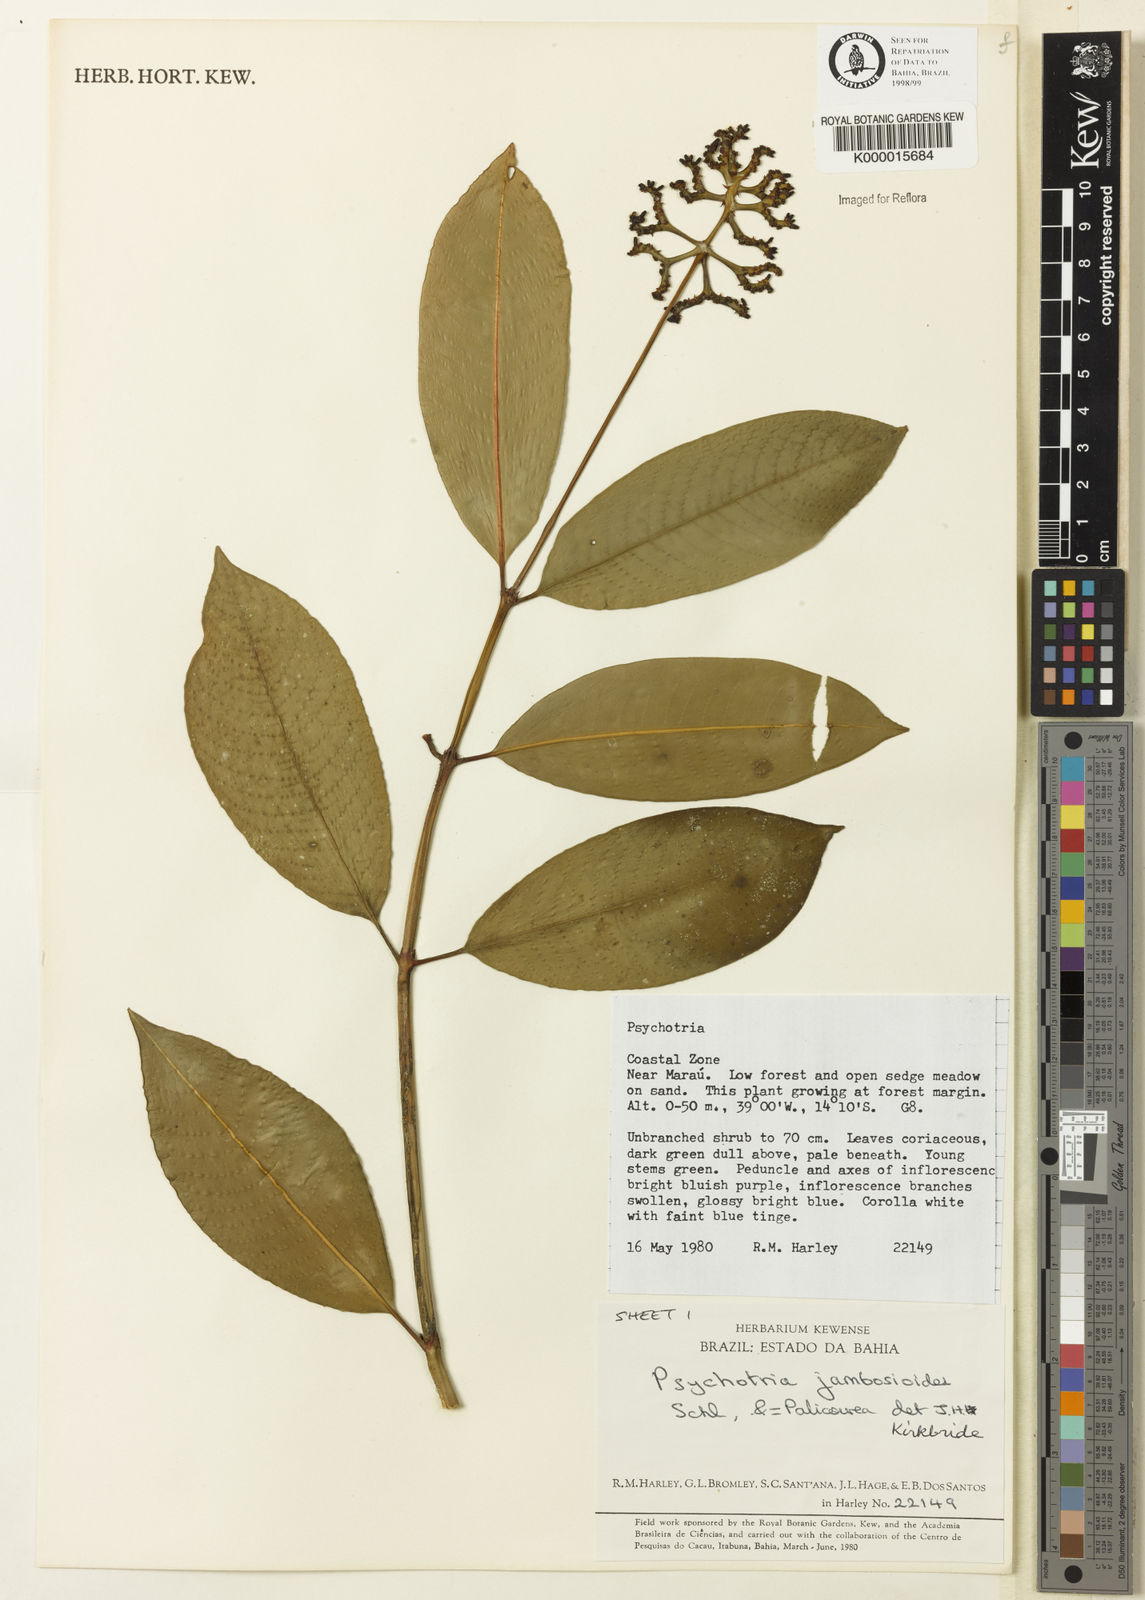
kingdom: Plantae
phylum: Tracheophyta
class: Magnoliopsida
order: Gentianales
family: Rubiaceae
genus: Palicourea
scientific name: Palicourea jambosioides
